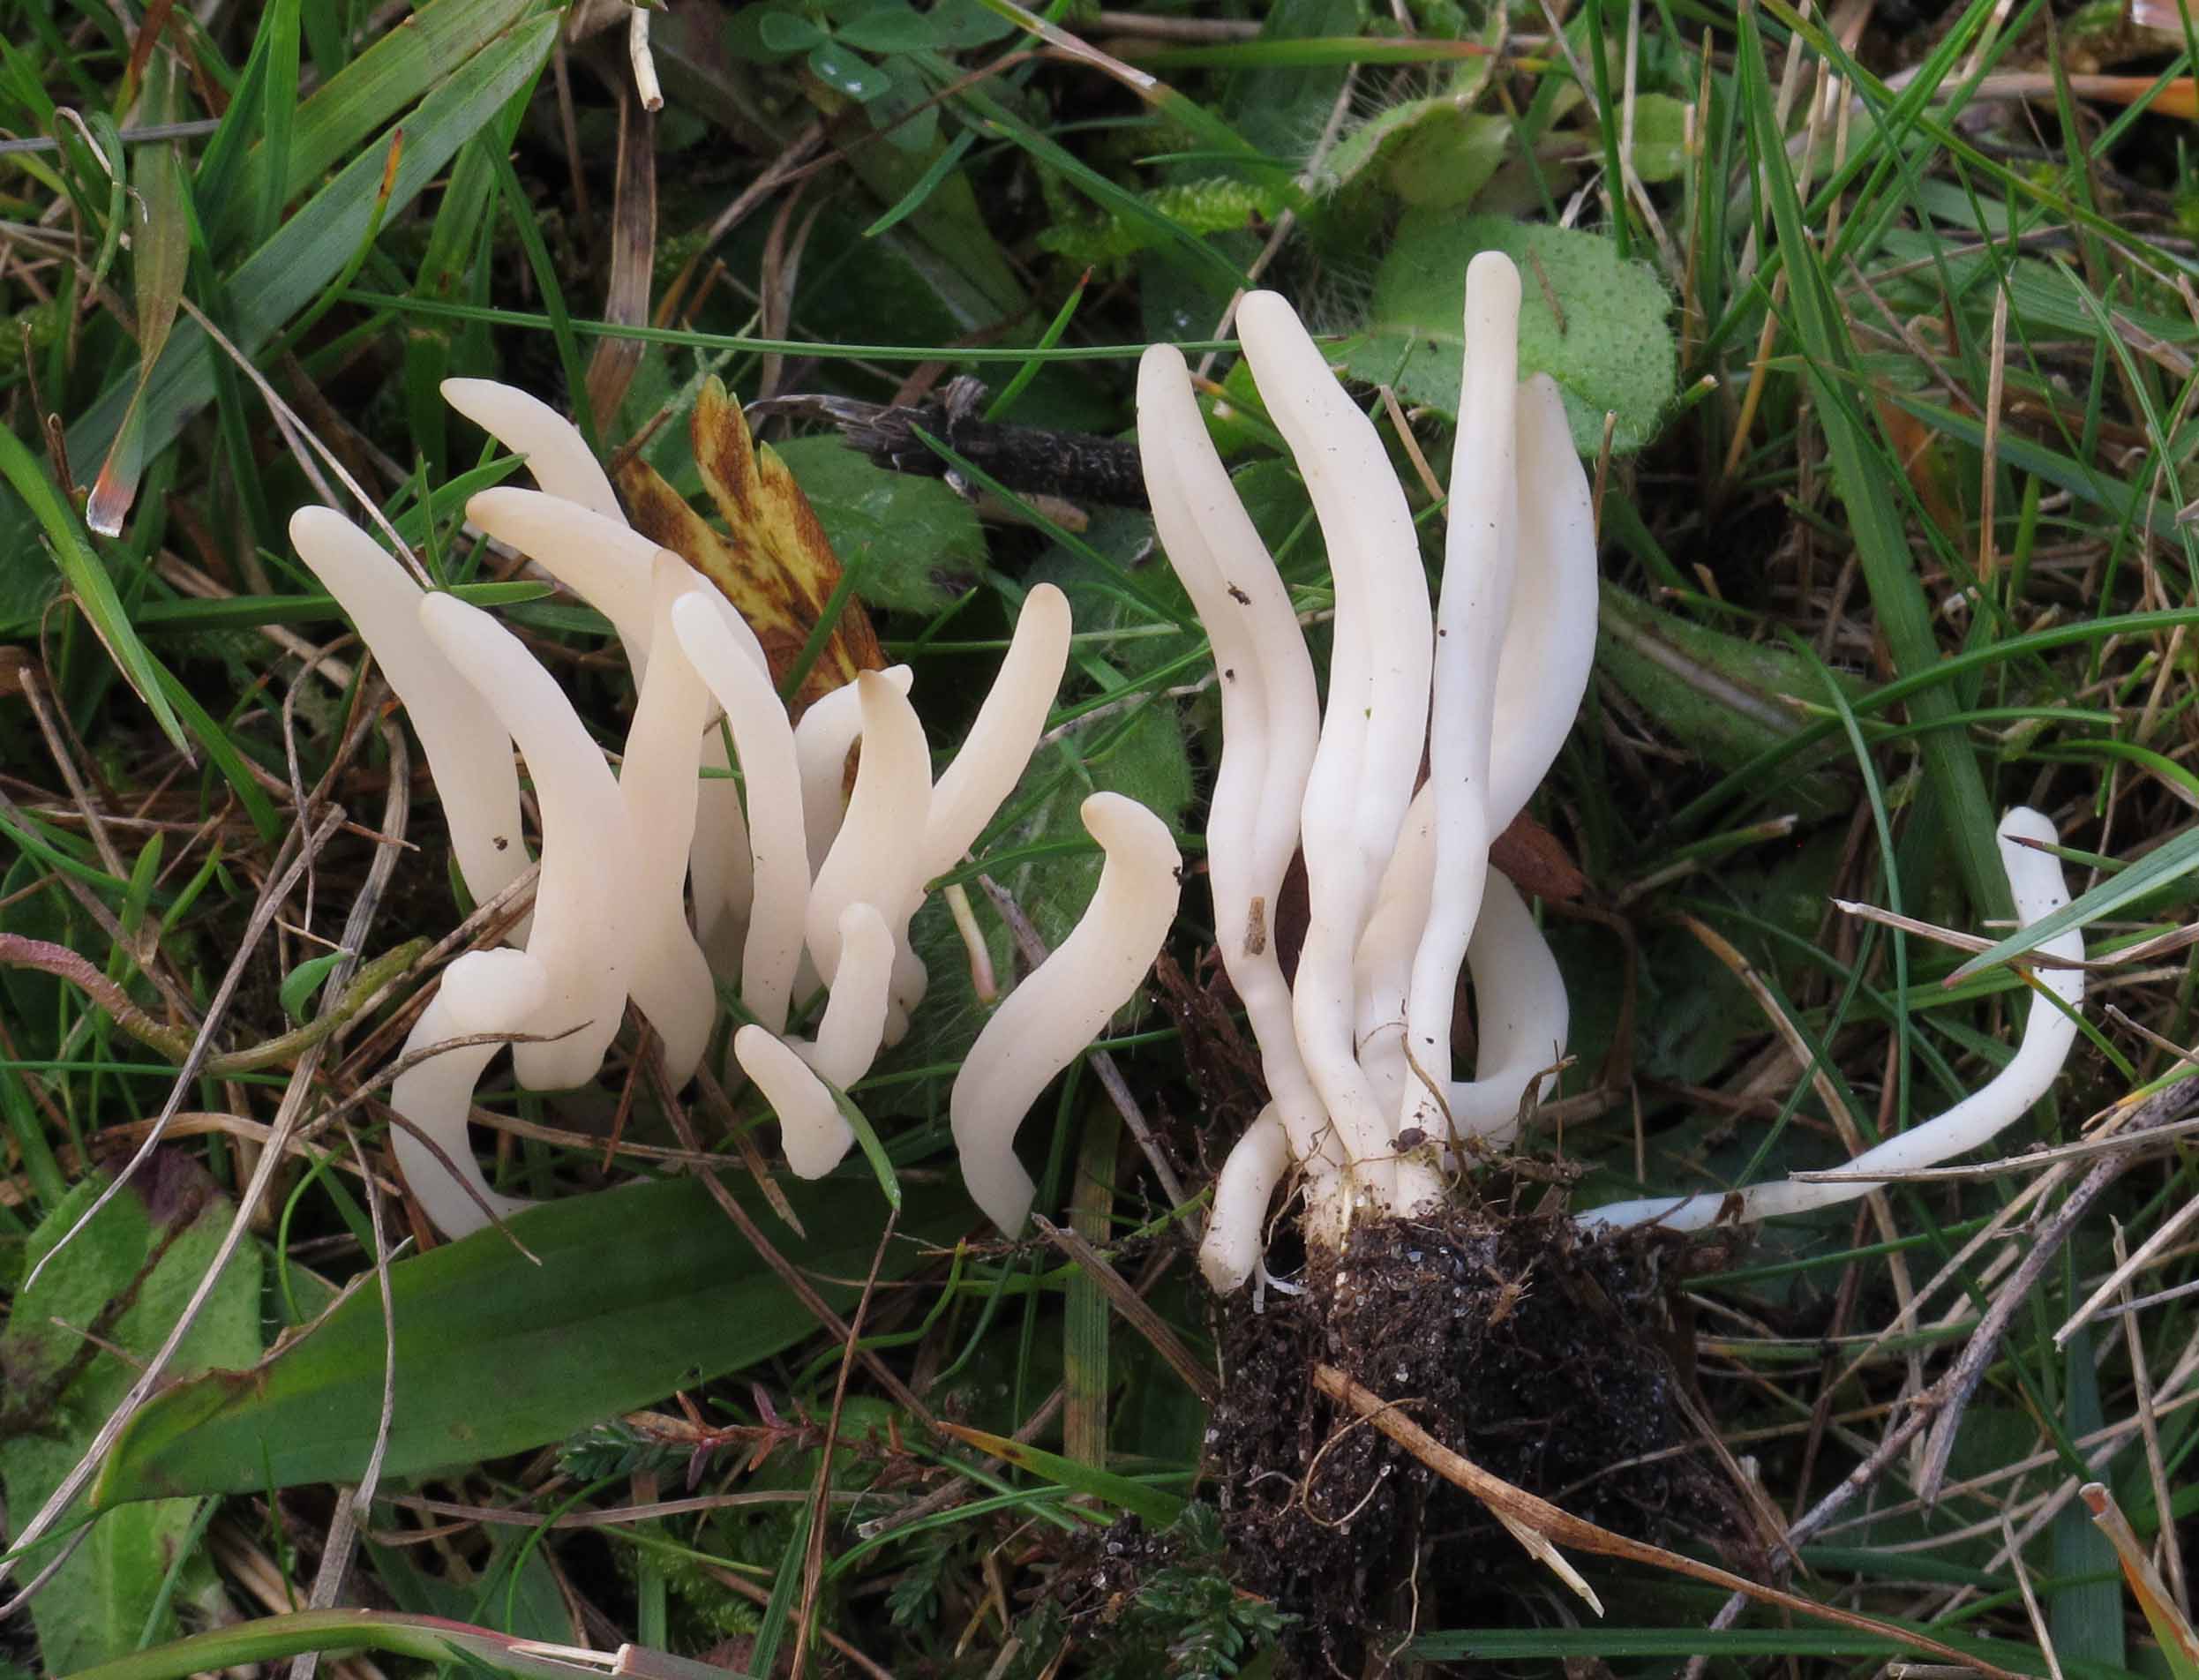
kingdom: Fungi
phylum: Basidiomycota
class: Agaricomycetes
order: Agaricales
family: Clavariaceae
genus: Clavaria
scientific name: Clavaria falcata
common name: hvid køllesvamp
